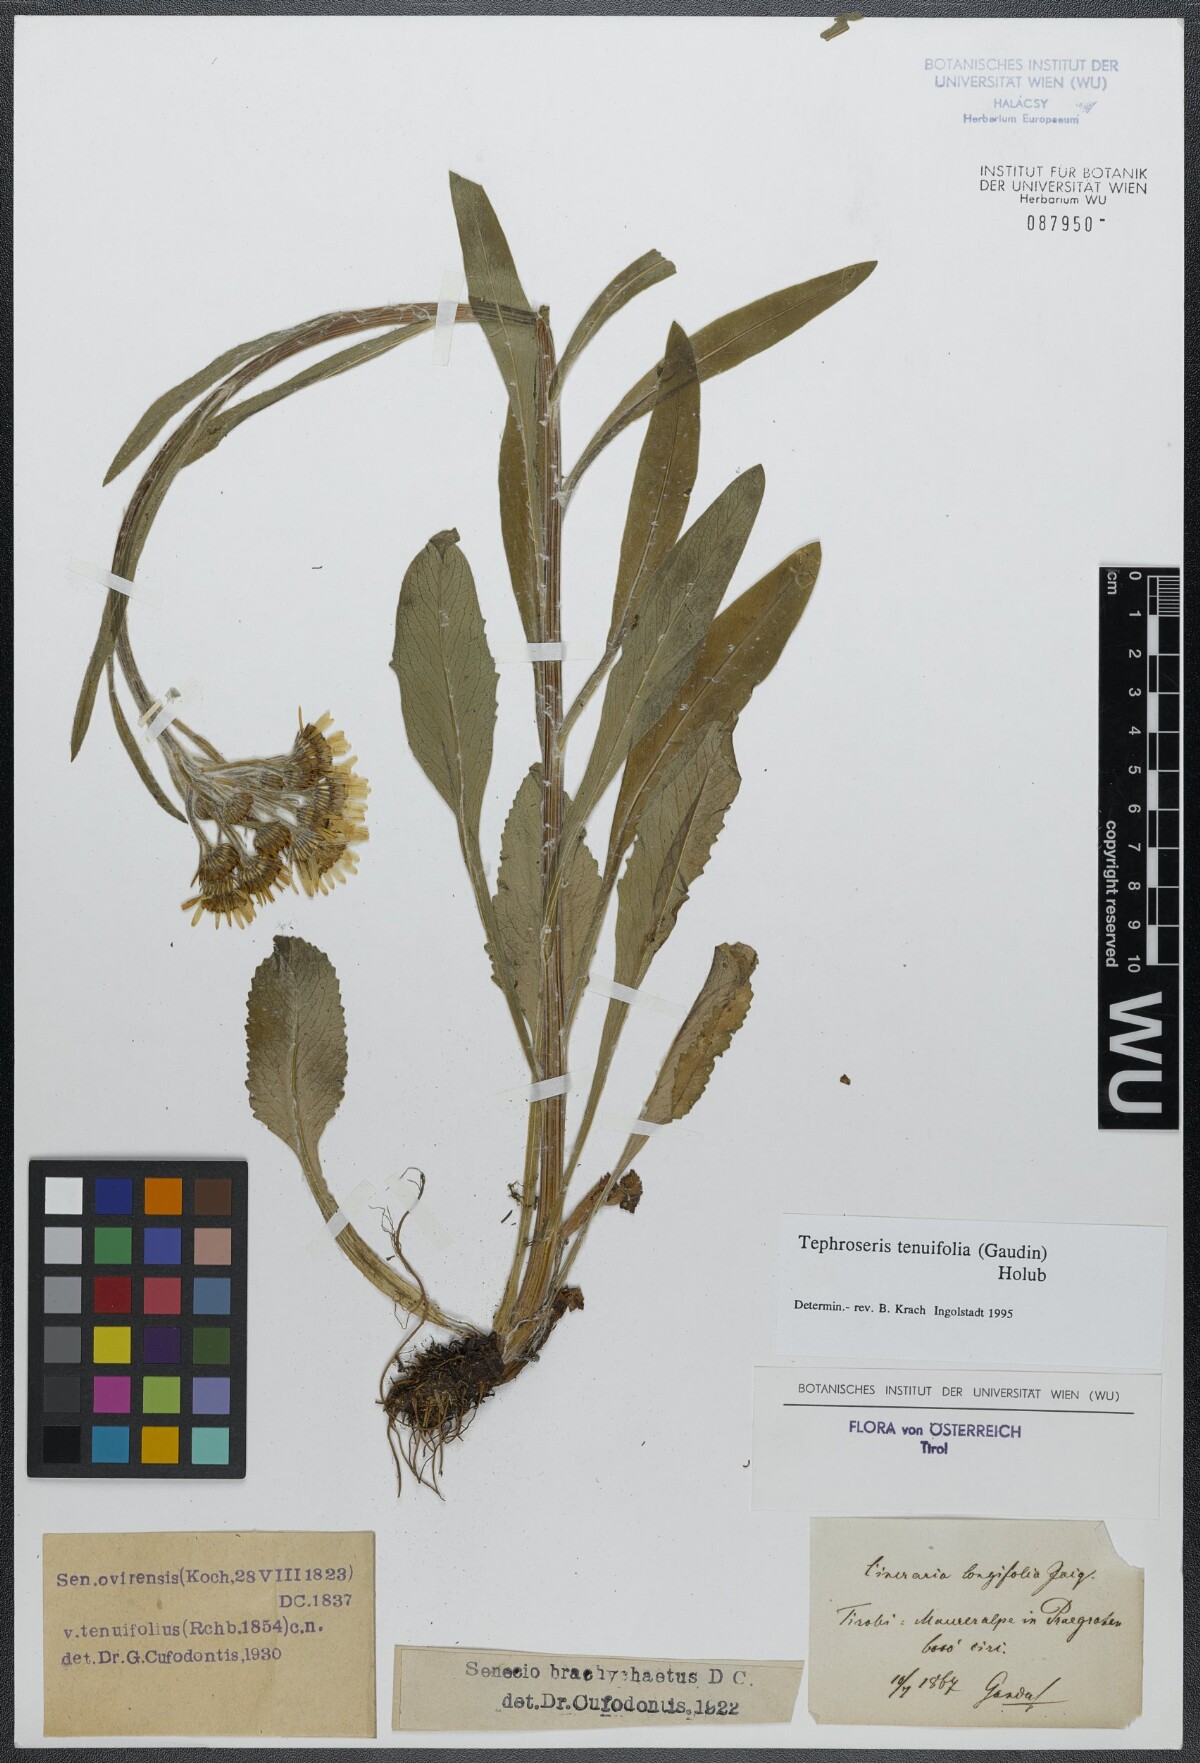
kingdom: Plantae
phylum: Tracheophyta
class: Magnoliopsida
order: Asterales
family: Asteraceae
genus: Tephroseris
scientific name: Tephroseris tenuifolia
